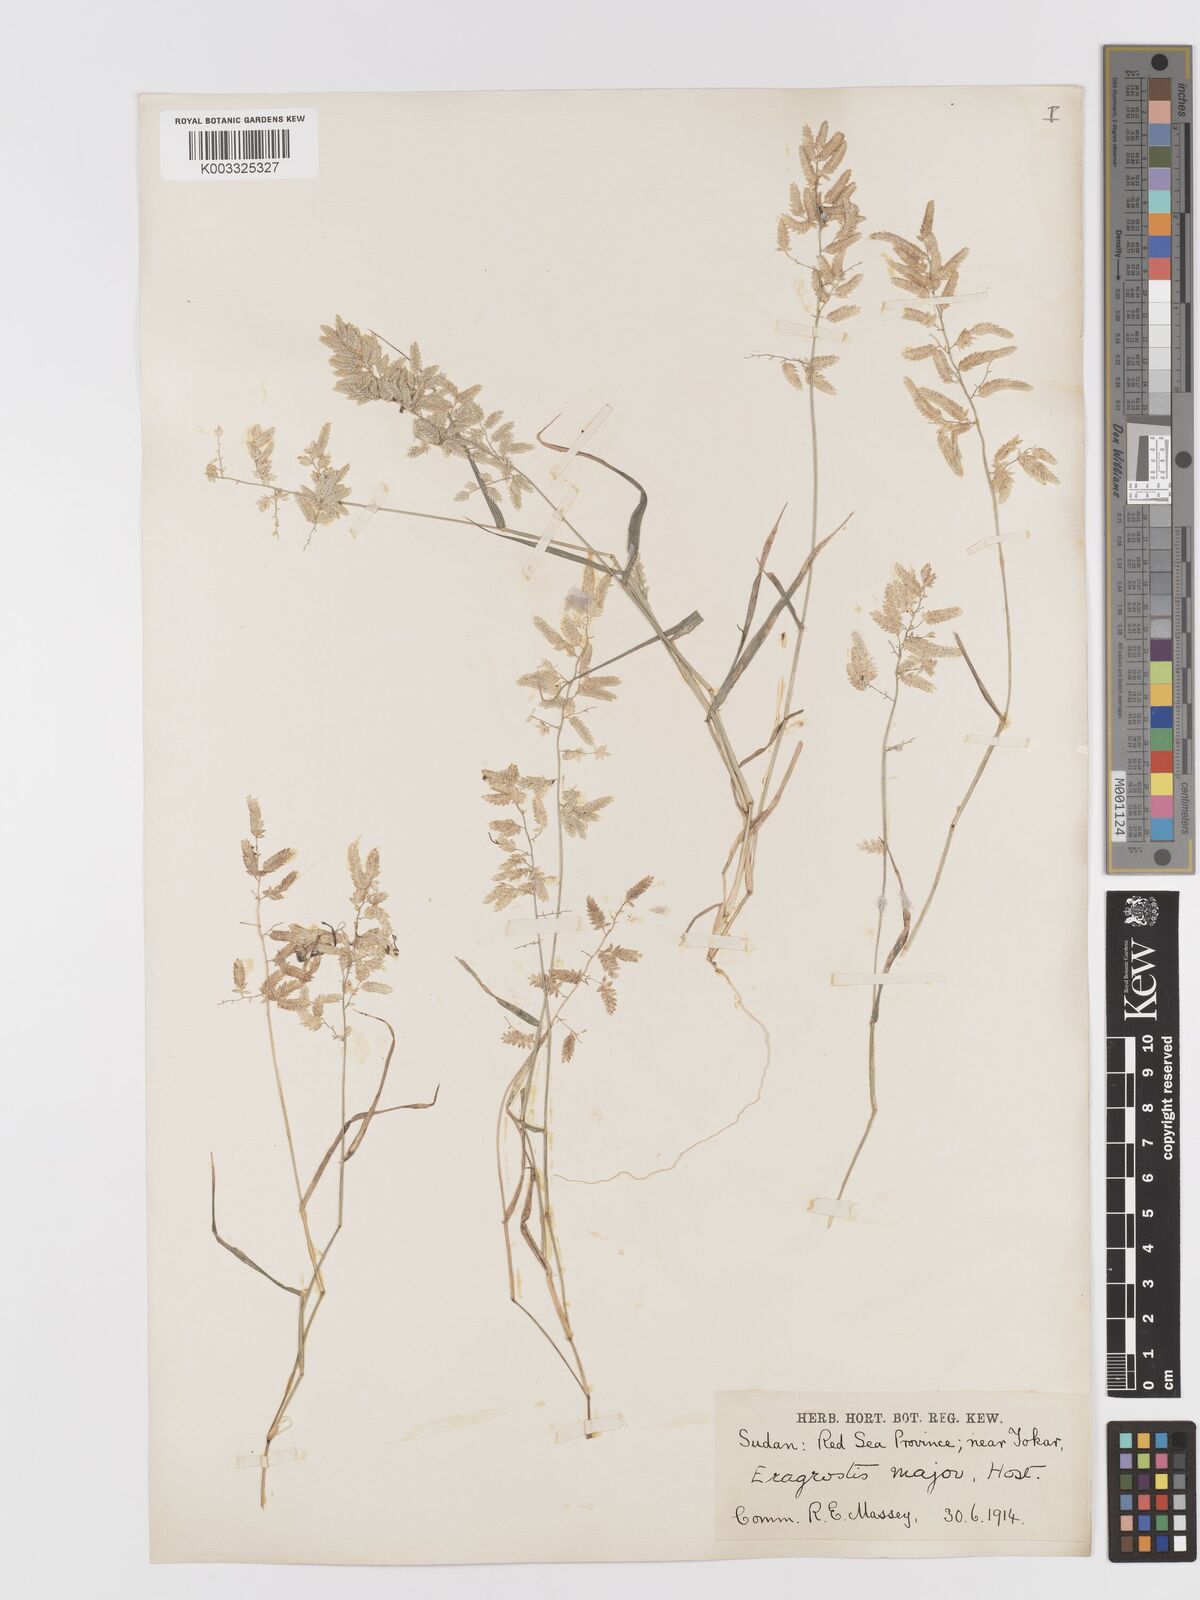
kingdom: Plantae
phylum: Tracheophyta
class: Liliopsida
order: Poales
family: Poaceae
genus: Eragrostis
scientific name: Eragrostis cilianensis
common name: Stinkgrass
